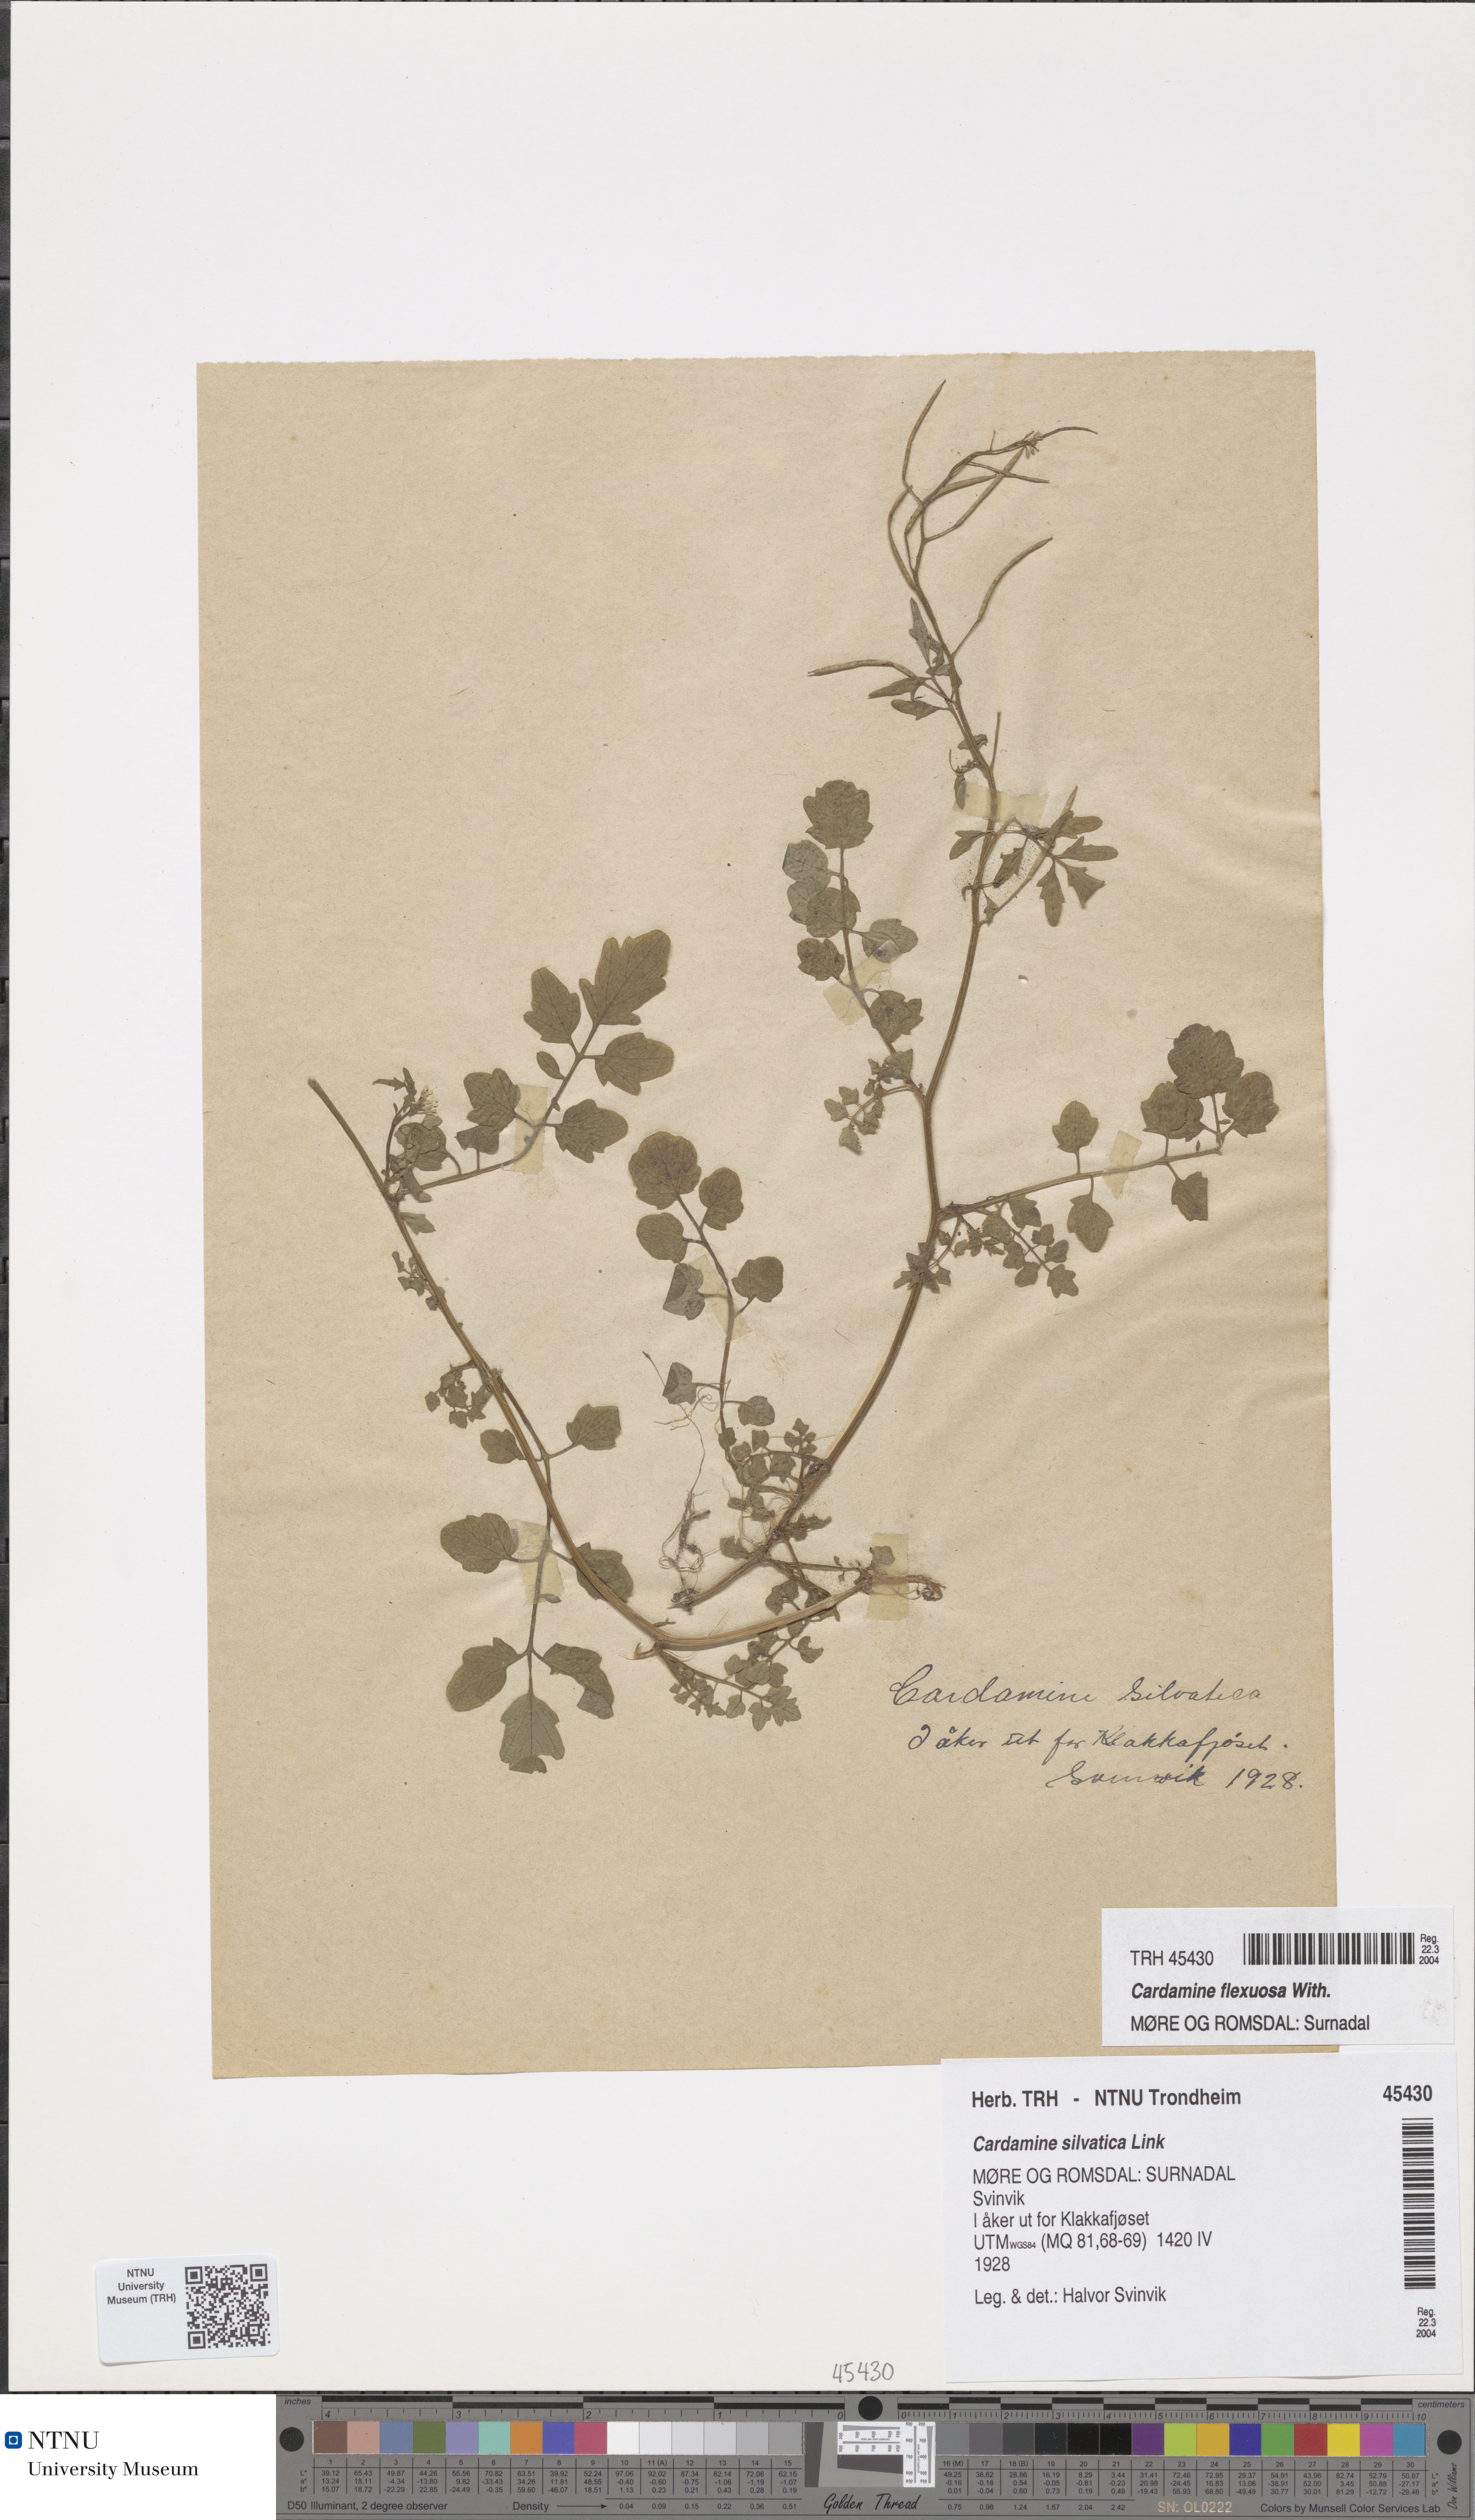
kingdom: Plantae
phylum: Tracheophyta
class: Magnoliopsida
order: Brassicales
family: Brassicaceae
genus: Cardamine
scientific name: Cardamine flexuosa
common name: Woodland bittercress
